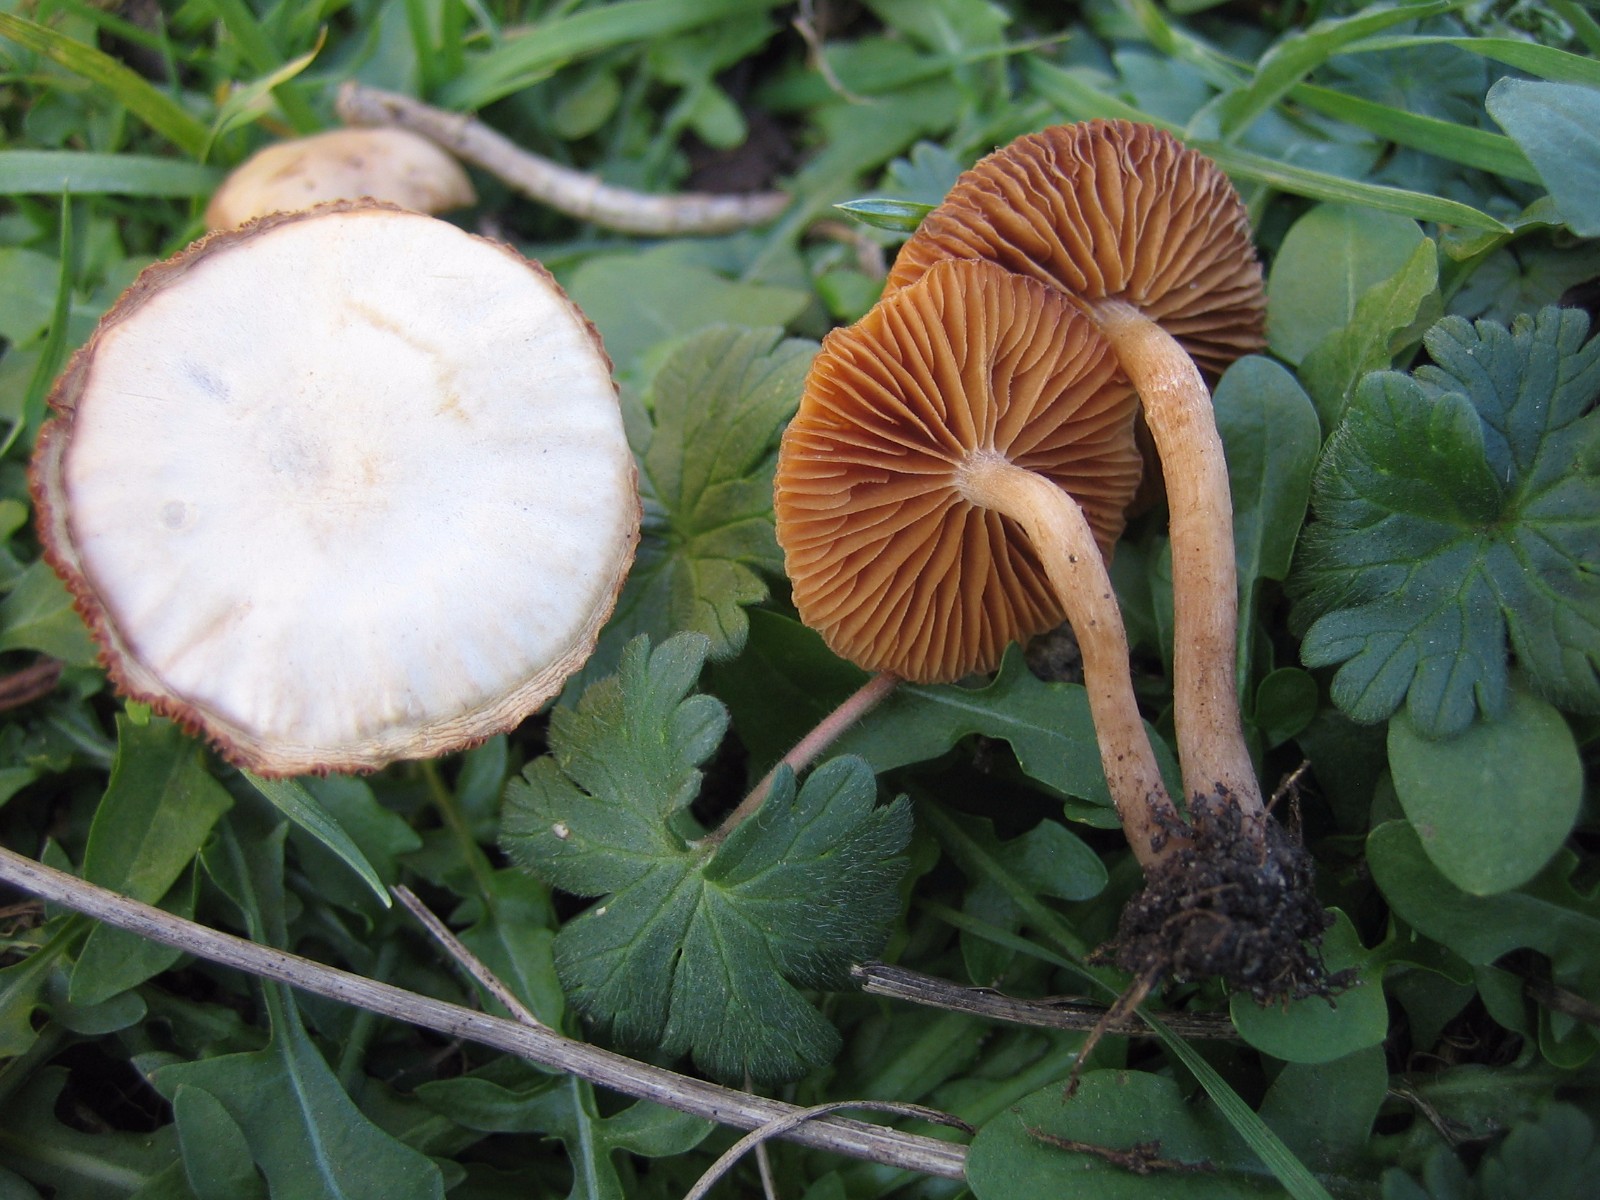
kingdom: Fungi
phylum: Basidiomycota
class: Agaricomycetes
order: Agaricales
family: Tubariaceae
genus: Tubaria
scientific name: Tubaria furfuracea
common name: kliddet fnughat
